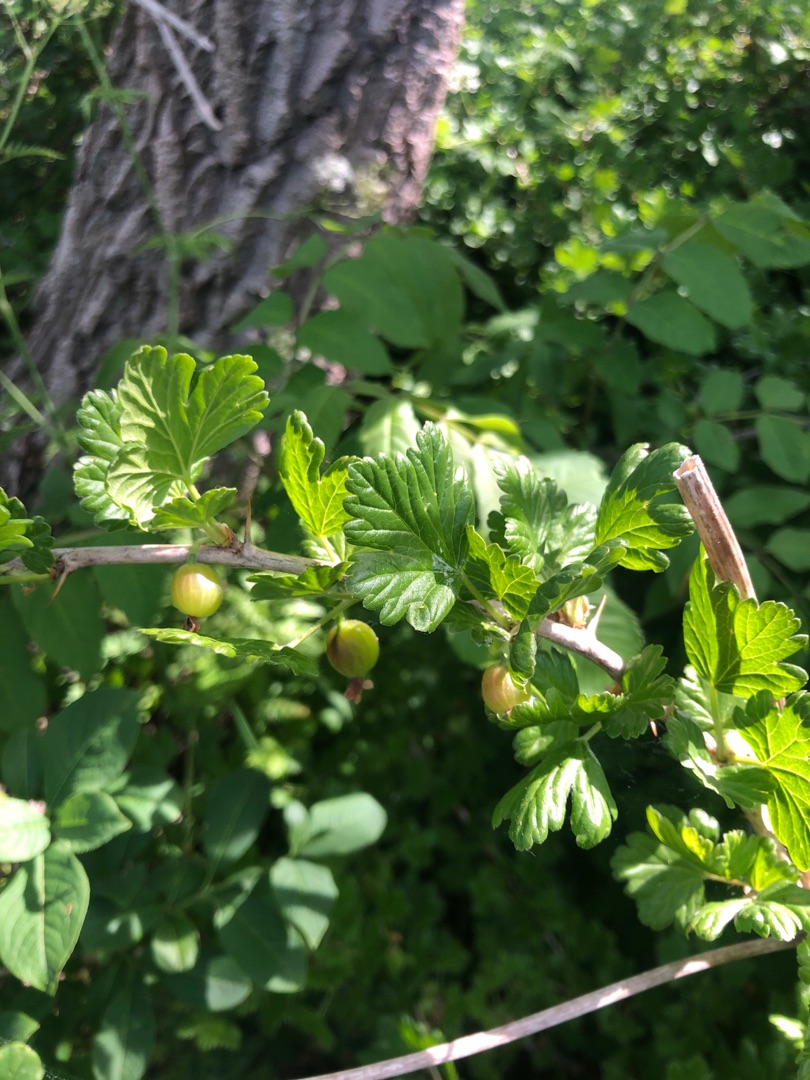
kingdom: Plantae
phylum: Tracheophyta
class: Magnoliopsida
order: Saxifragales
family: Grossulariaceae
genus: Ribes
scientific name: Ribes uva-crispa
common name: Stikkelsbær
